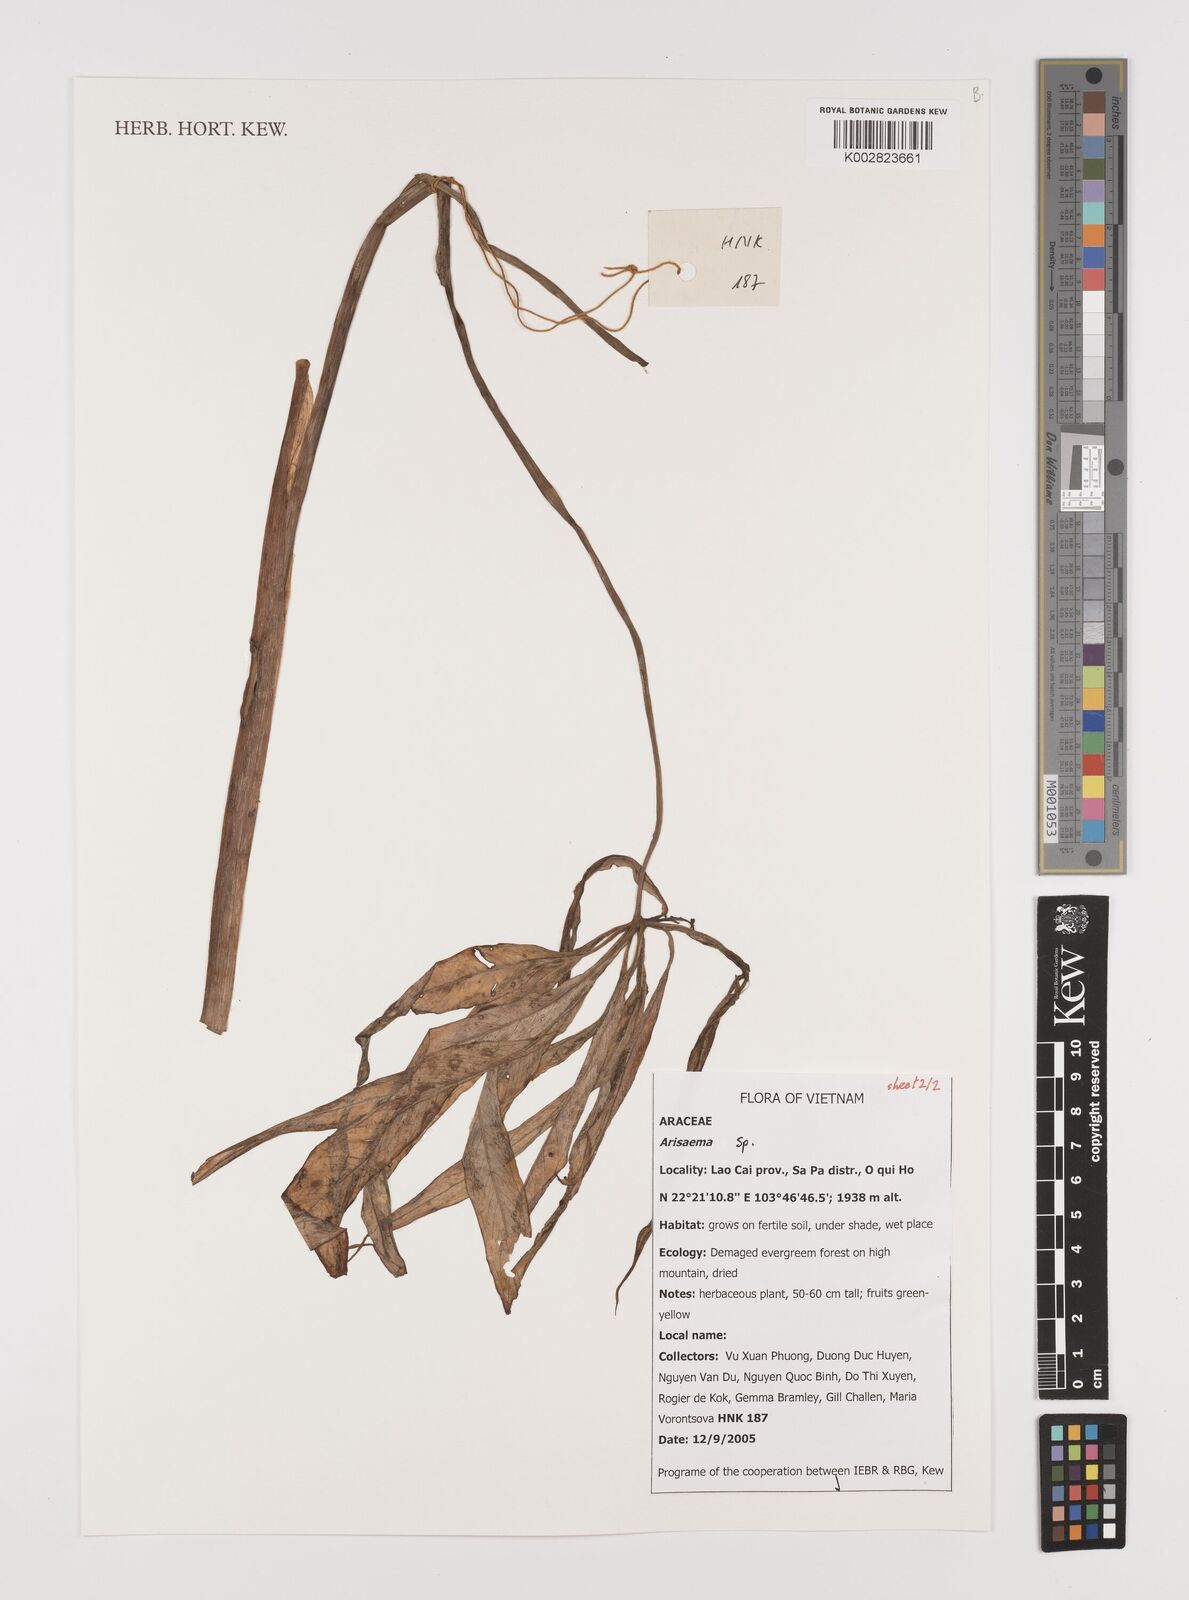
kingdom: Plantae
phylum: Tracheophyta
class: Liliopsida
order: Alismatales
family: Araceae
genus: Arisaema
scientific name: Arisaema
